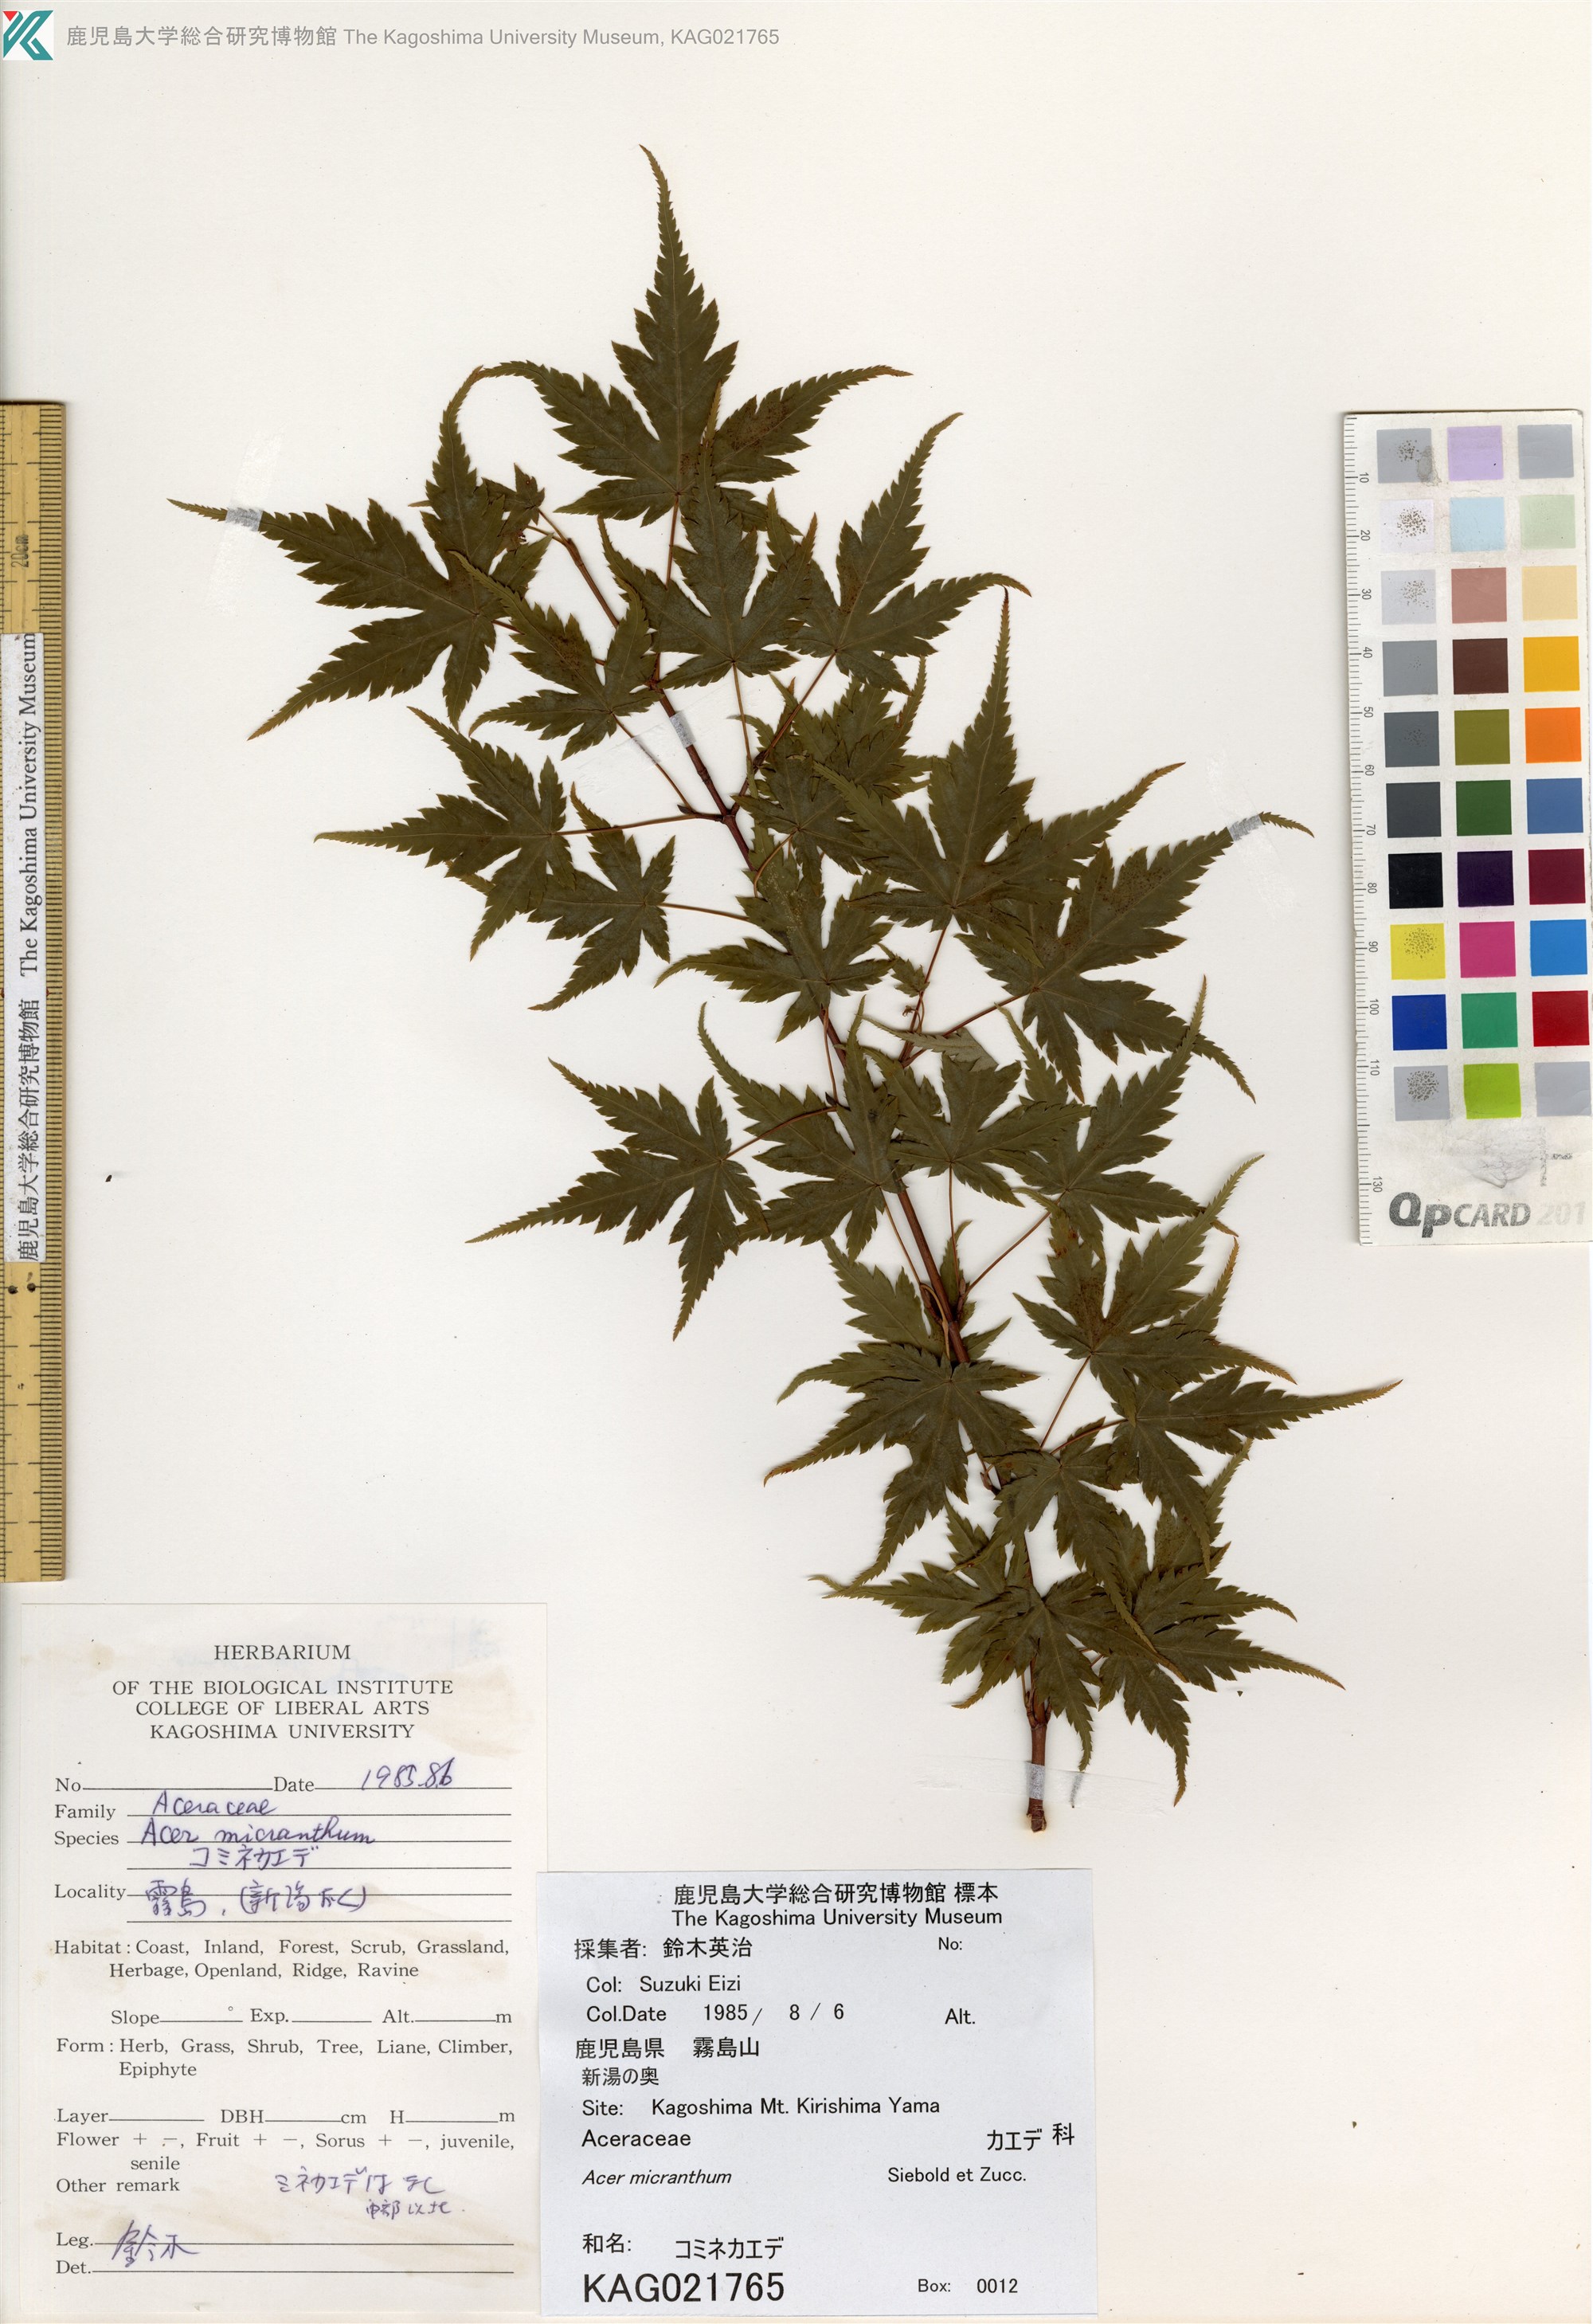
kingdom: Plantae
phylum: Tracheophyta
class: Magnoliopsida
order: Sapindales
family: Sapindaceae
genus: Acer
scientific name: Acer micranthum
